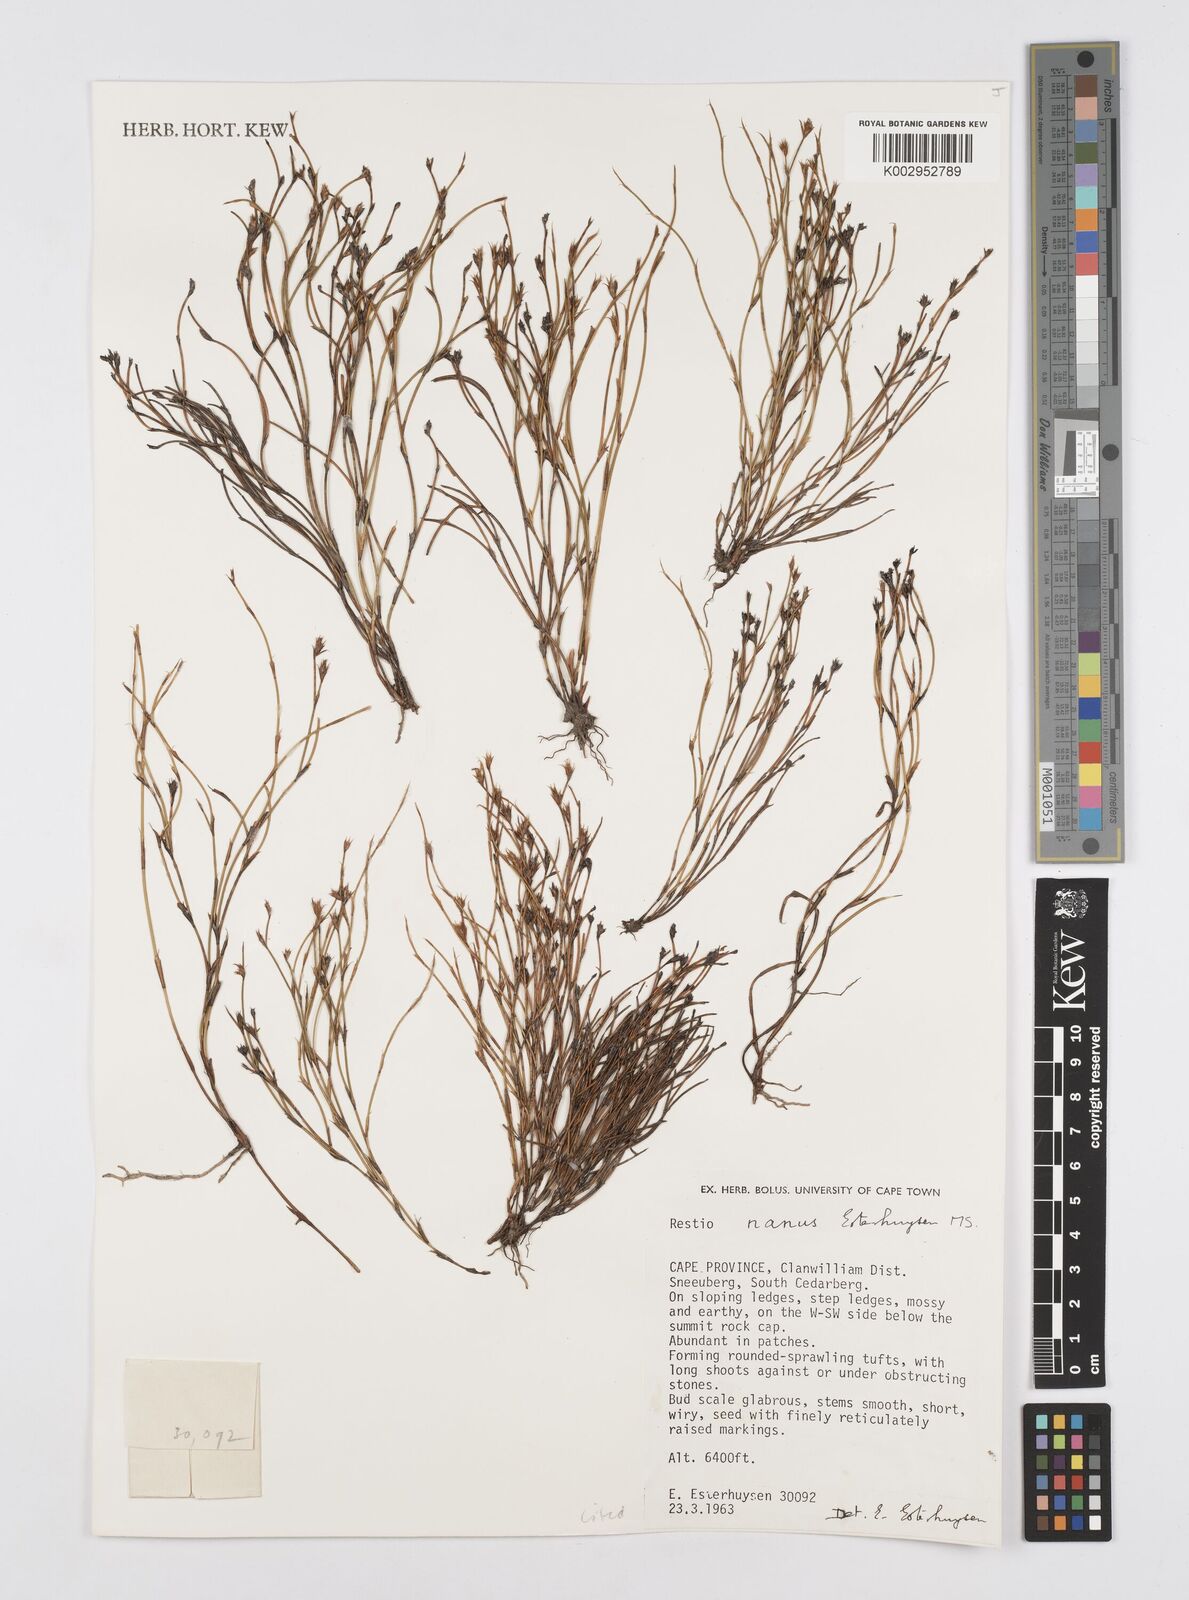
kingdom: Plantae
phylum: Tracheophyta
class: Liliopsida
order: Poales
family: Restionaceae
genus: Restio
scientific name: Restio nanus
